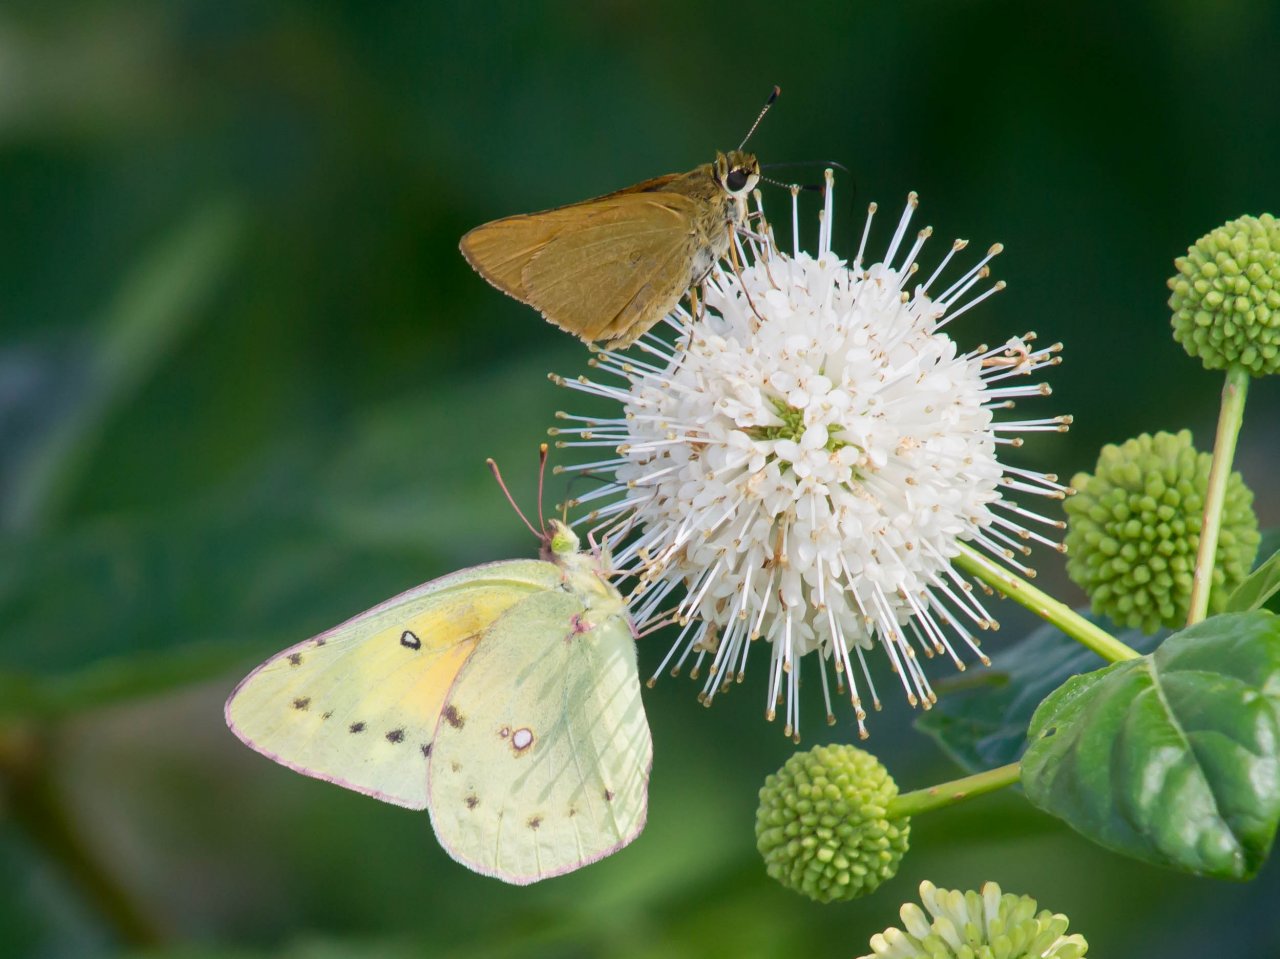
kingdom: Animalia
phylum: Arthropoda
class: Insecta
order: Lepidoptera
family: Pieridae
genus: Colias
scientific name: Colias eurytheme
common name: Orange Sulphur
